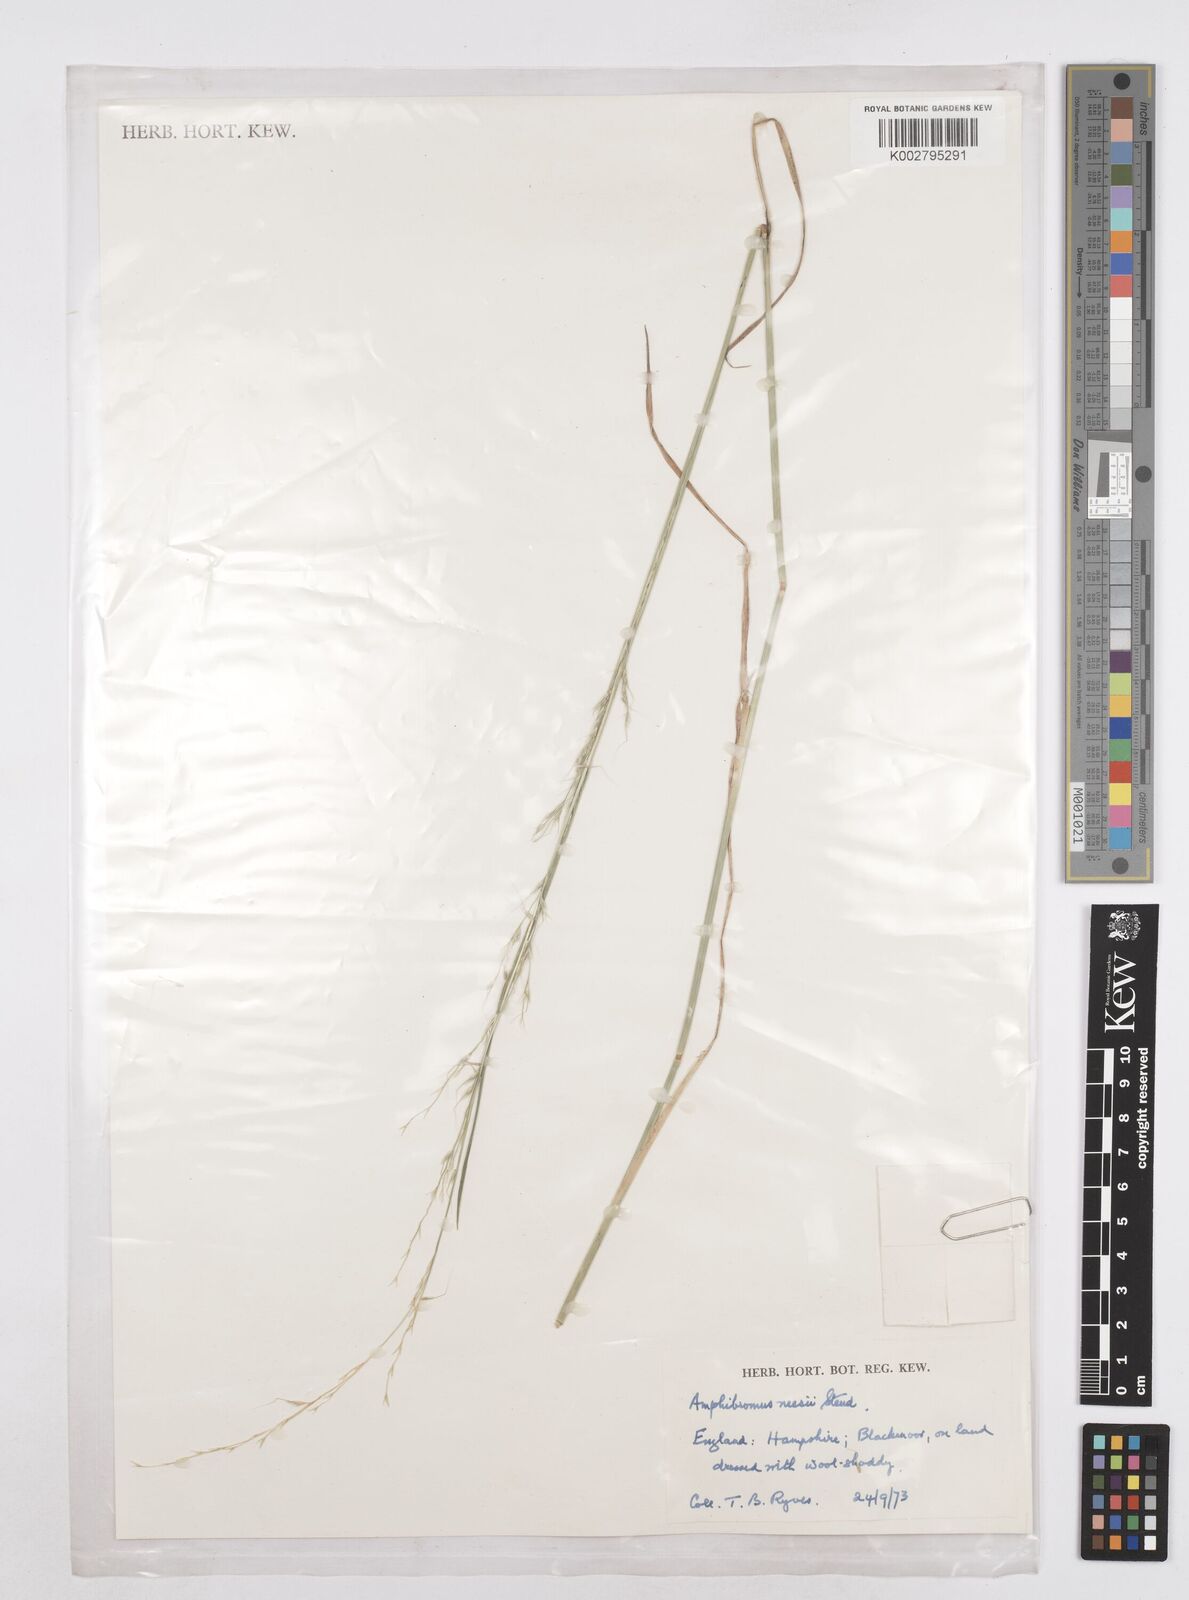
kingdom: Plantae
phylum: Tracheophyta
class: Liliopsida
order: Poales
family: Poaceae
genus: Amphibromus
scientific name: Amphibromus neesii
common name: Australian wallaby grass
